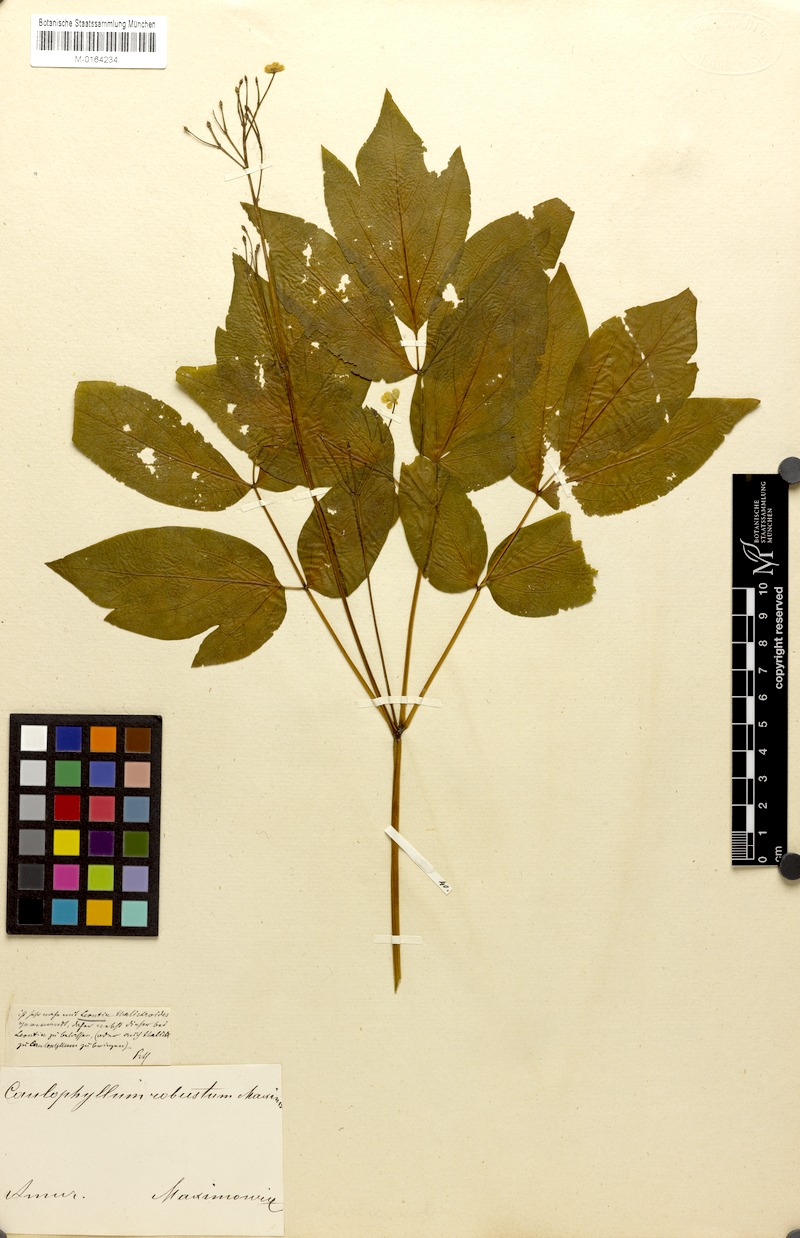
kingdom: Plantae
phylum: Tracheophyta
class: Magnoliopsida
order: Ranunculales
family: Berberidaceae
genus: Caulophyllum
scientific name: Caulophyllum robustum
